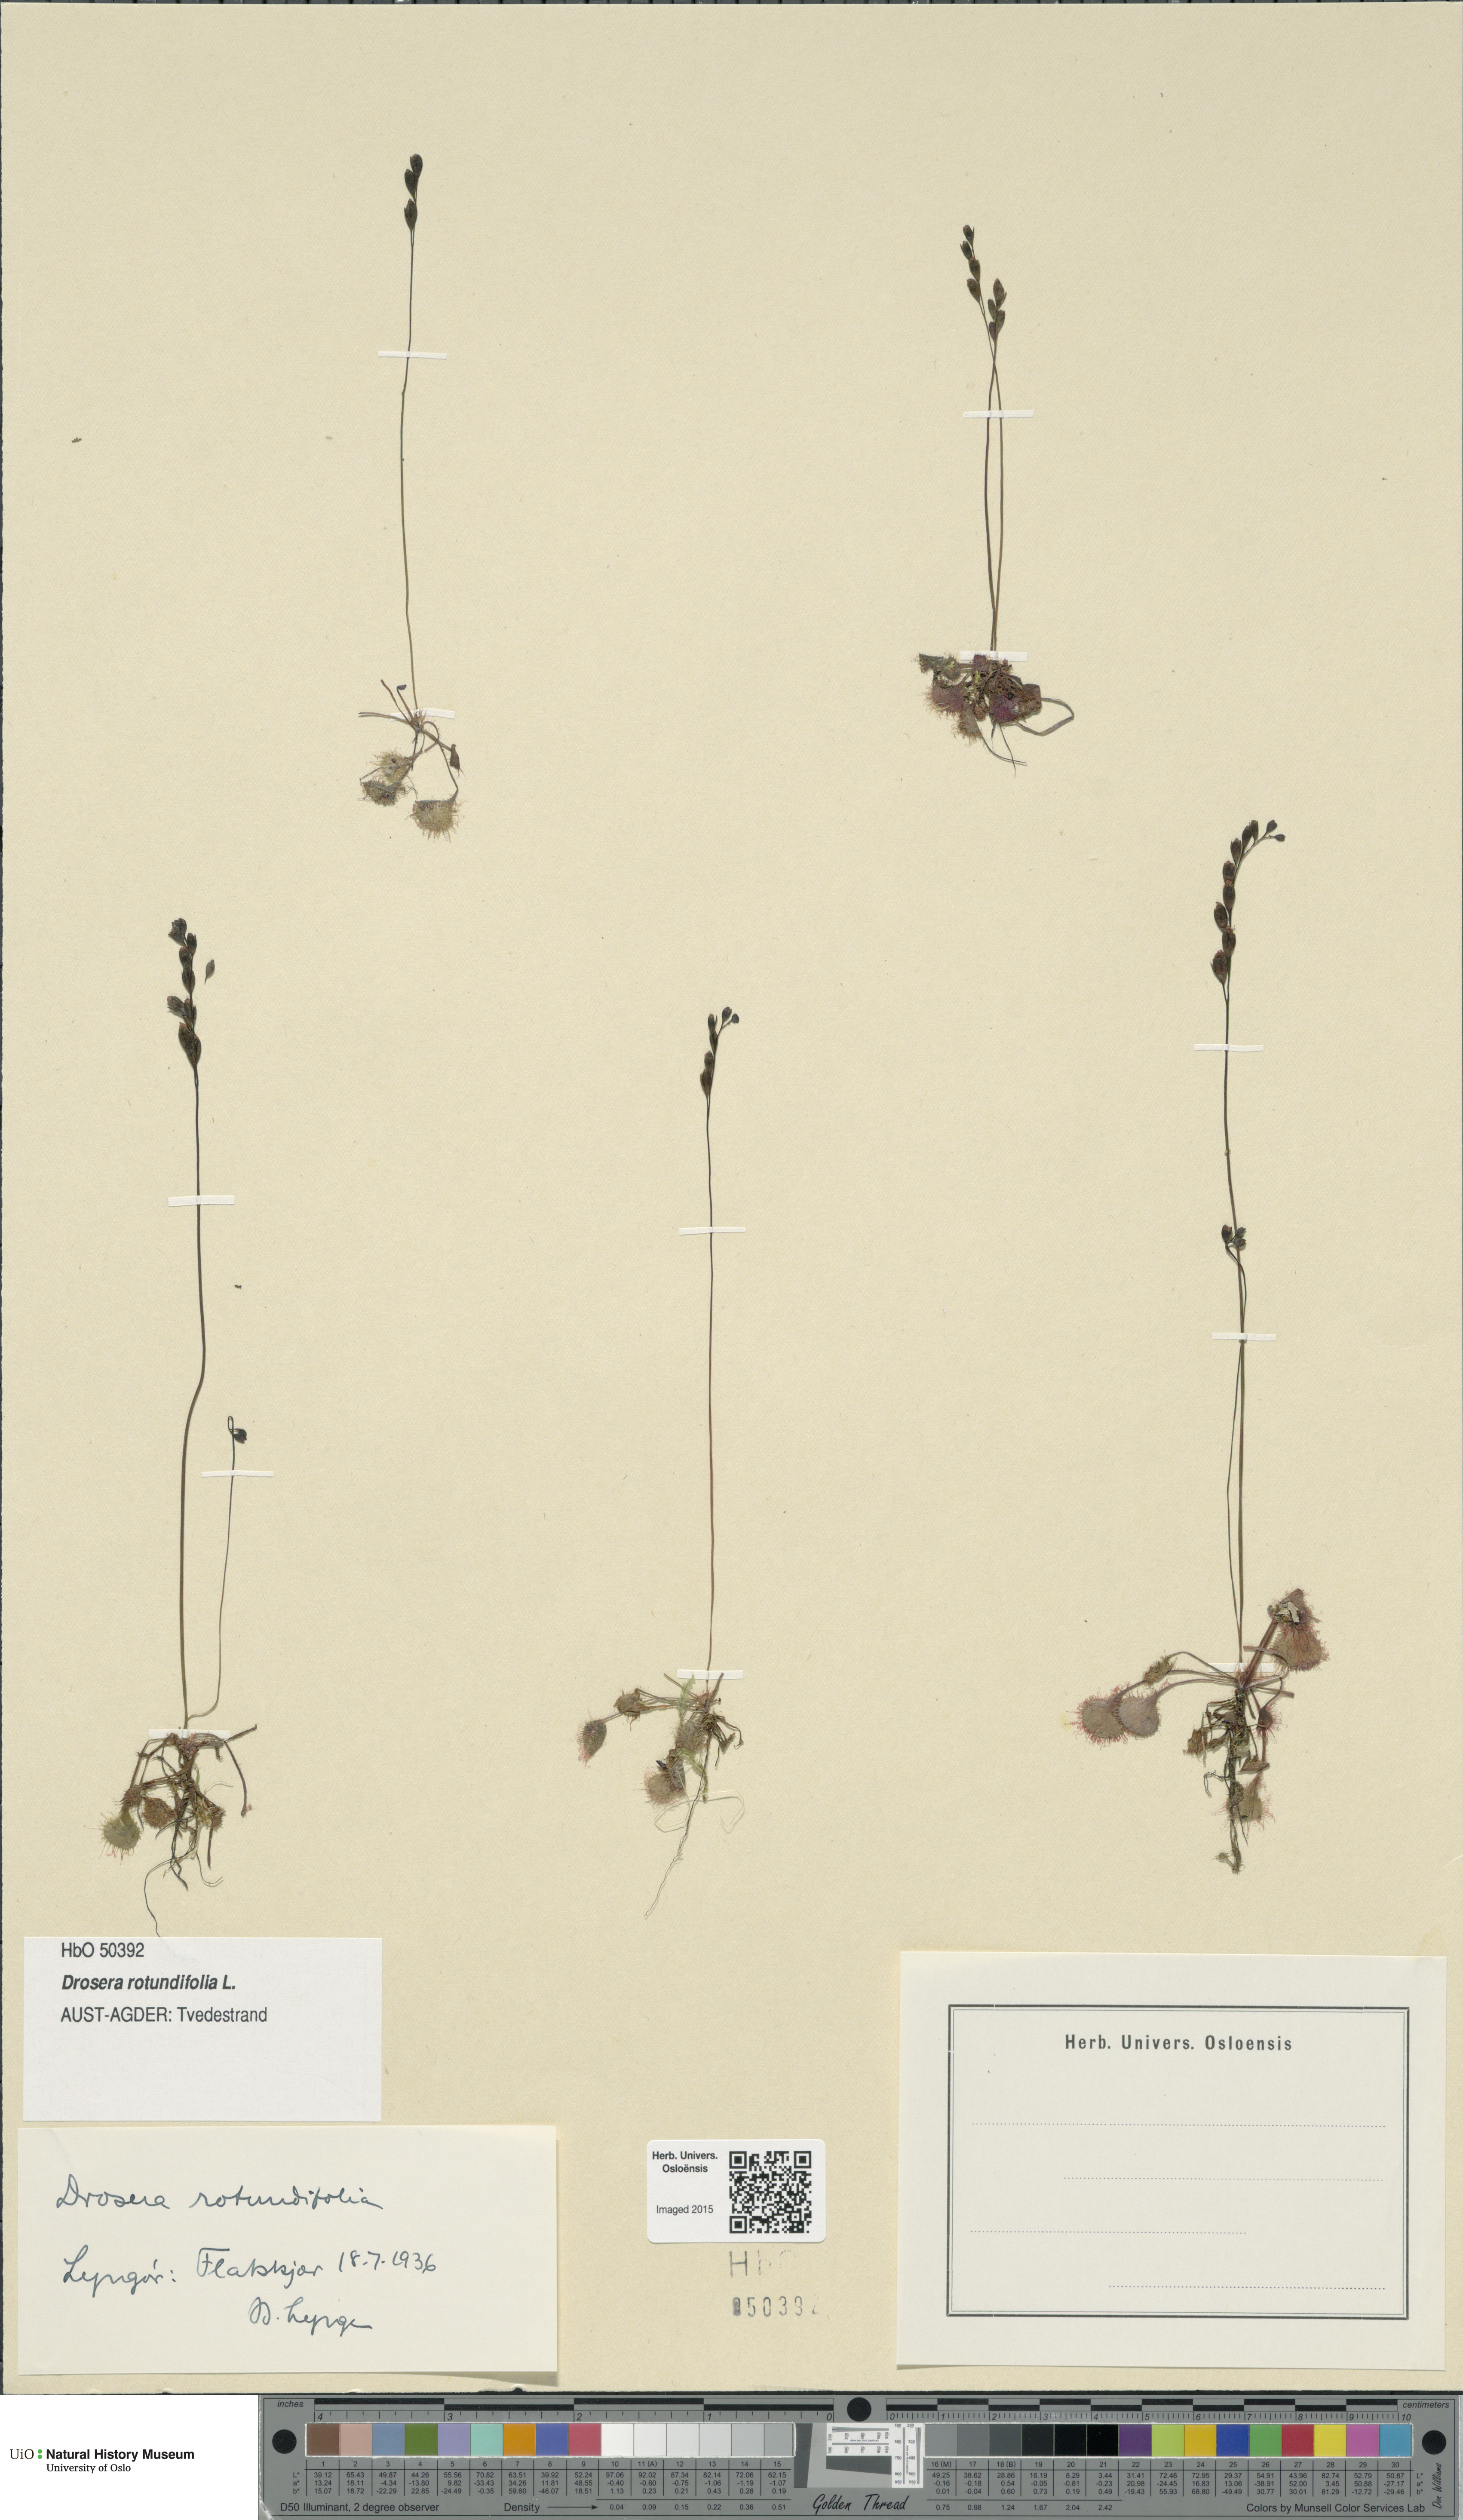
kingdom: Plantae
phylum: Tracheophyta
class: Magnoliopsida
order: Caryophyllales
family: Droseraceae
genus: Drosera
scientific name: Drosera rotundifolia
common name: Round-leaved sundew
